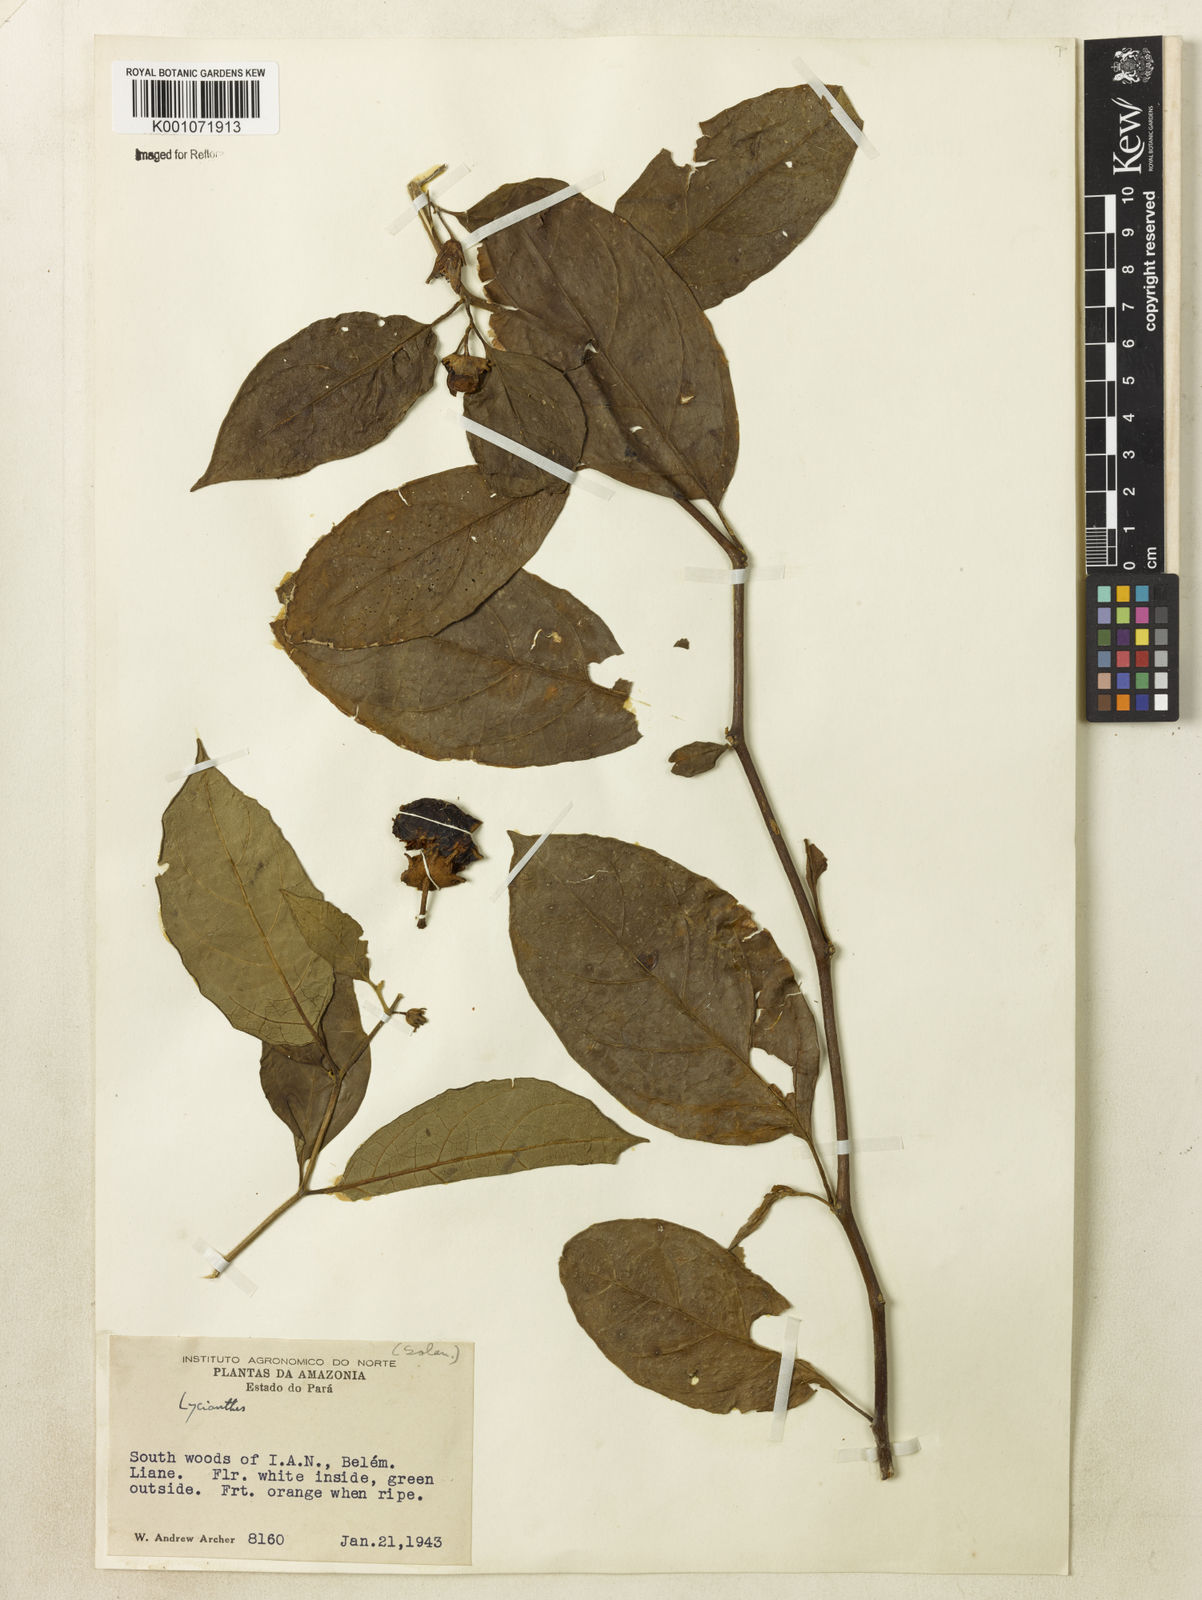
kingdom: Plantae
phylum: Tracheophyta
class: Magnoliopsida
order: Solanales
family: Solanaceae
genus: Lycianthes
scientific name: Lycianthes
